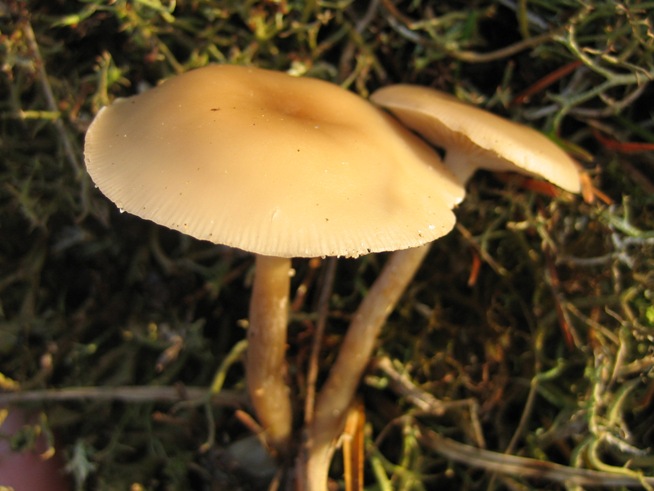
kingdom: Fungi
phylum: Basidiomycota
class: Agaricomycetes
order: Agaricales
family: Tricholomataceae
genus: Clitocybe
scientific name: Clitocybe diatreta
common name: kødfarvet tragthat
